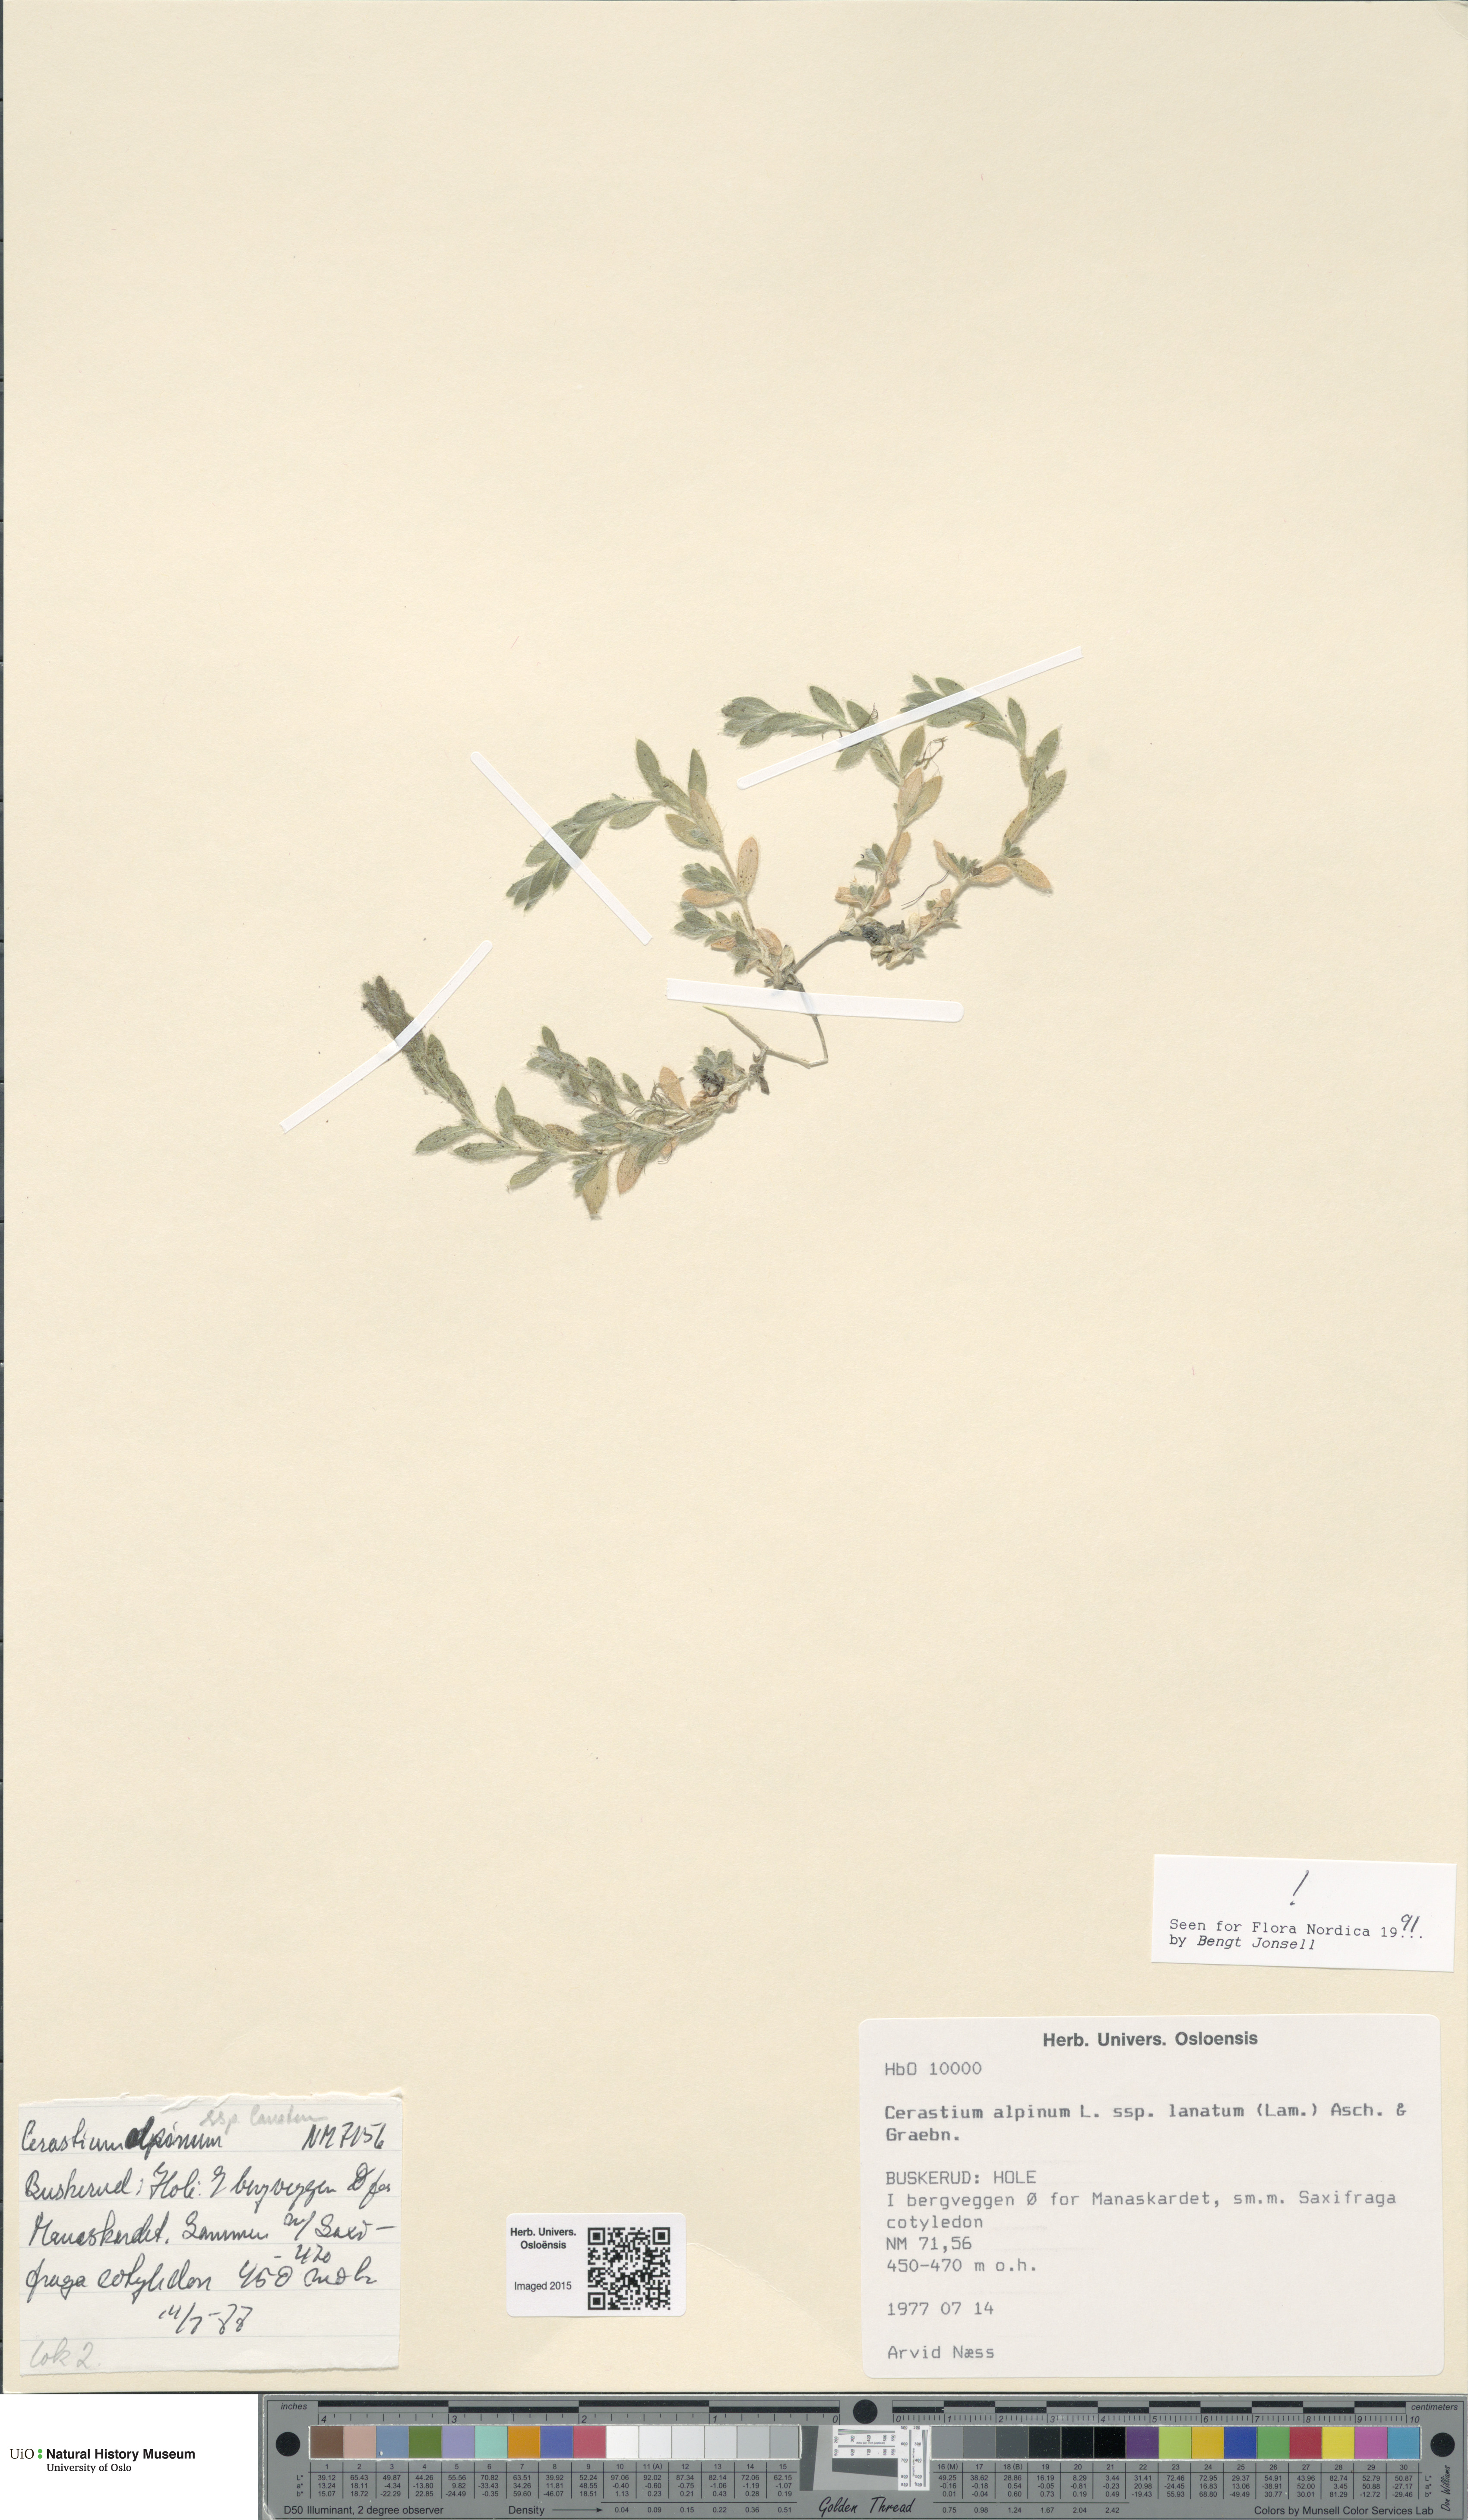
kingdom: Plantae
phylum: Tracheophyta
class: Magnoliopsida
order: Caryophyllales
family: Caryophyllaceae
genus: Cerastium
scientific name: Cerastium alpinum
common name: Alpine mouse-ear
